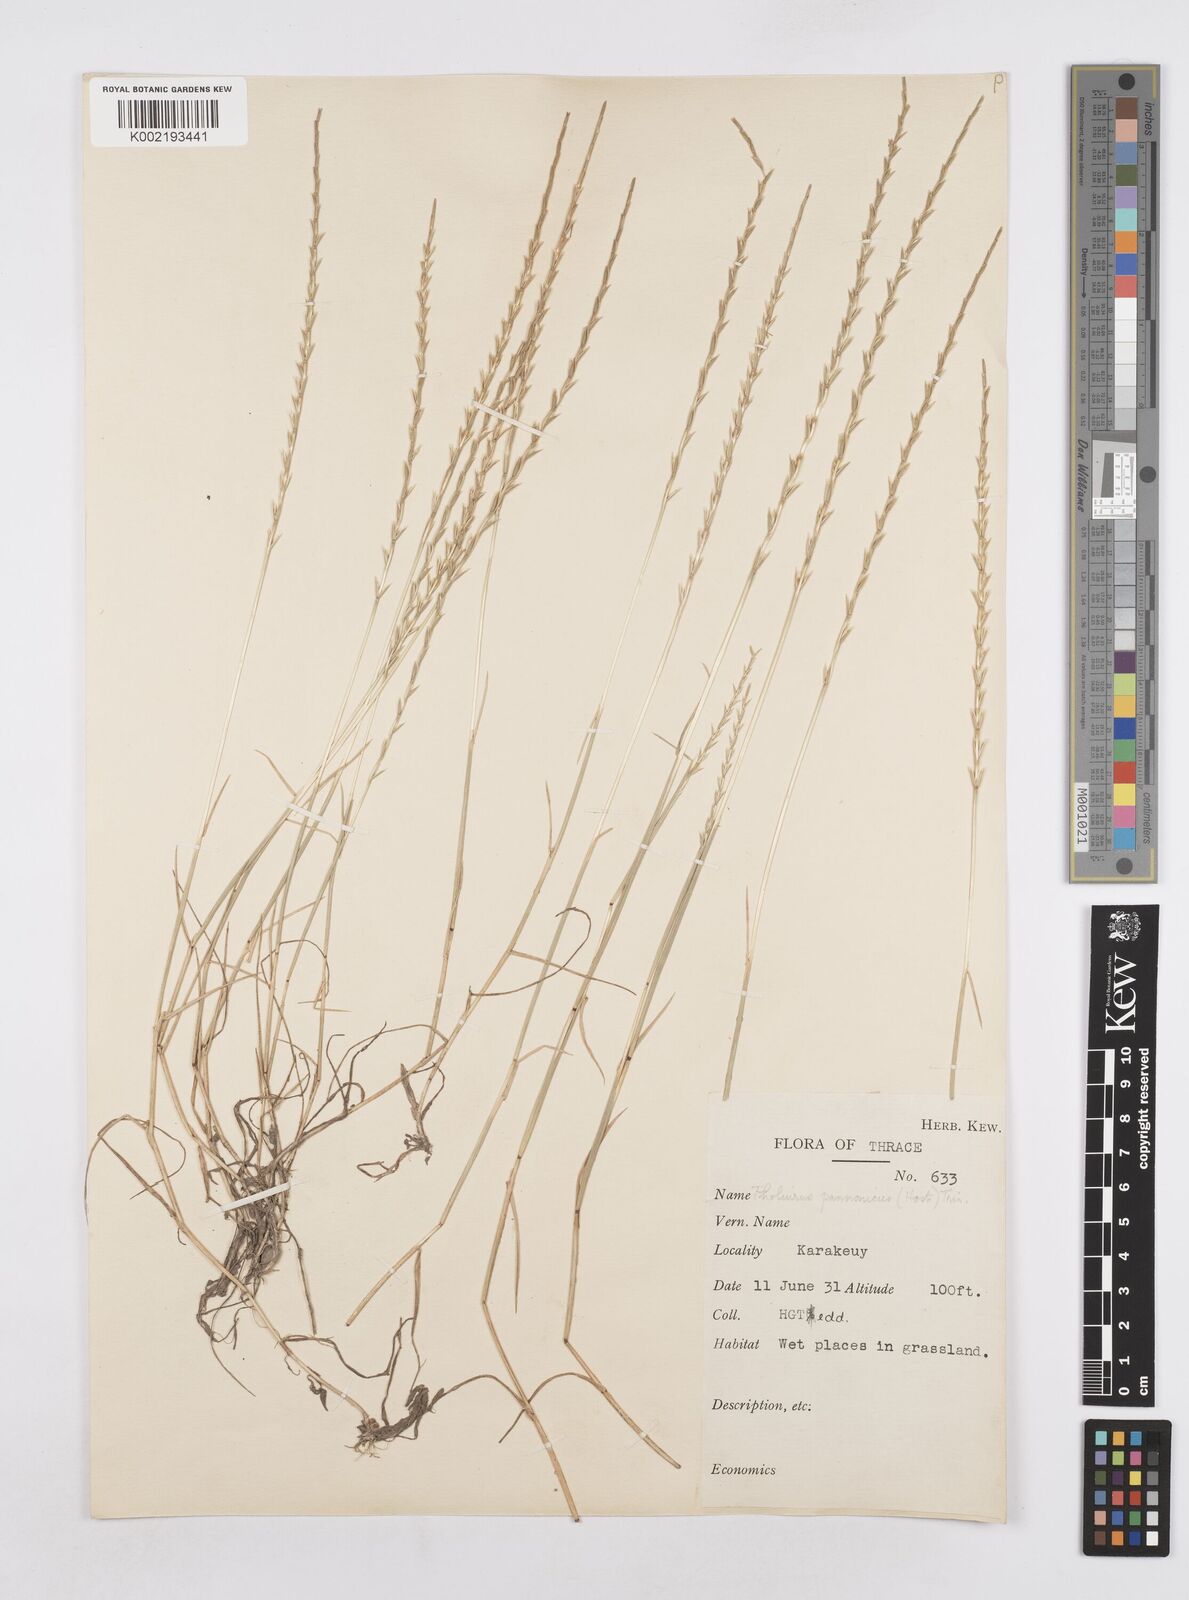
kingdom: Plantae
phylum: Tracheophyta
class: Liliopsida
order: Poales
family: Poaceae
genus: Pholiurus
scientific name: Pholiurus pannonicus
